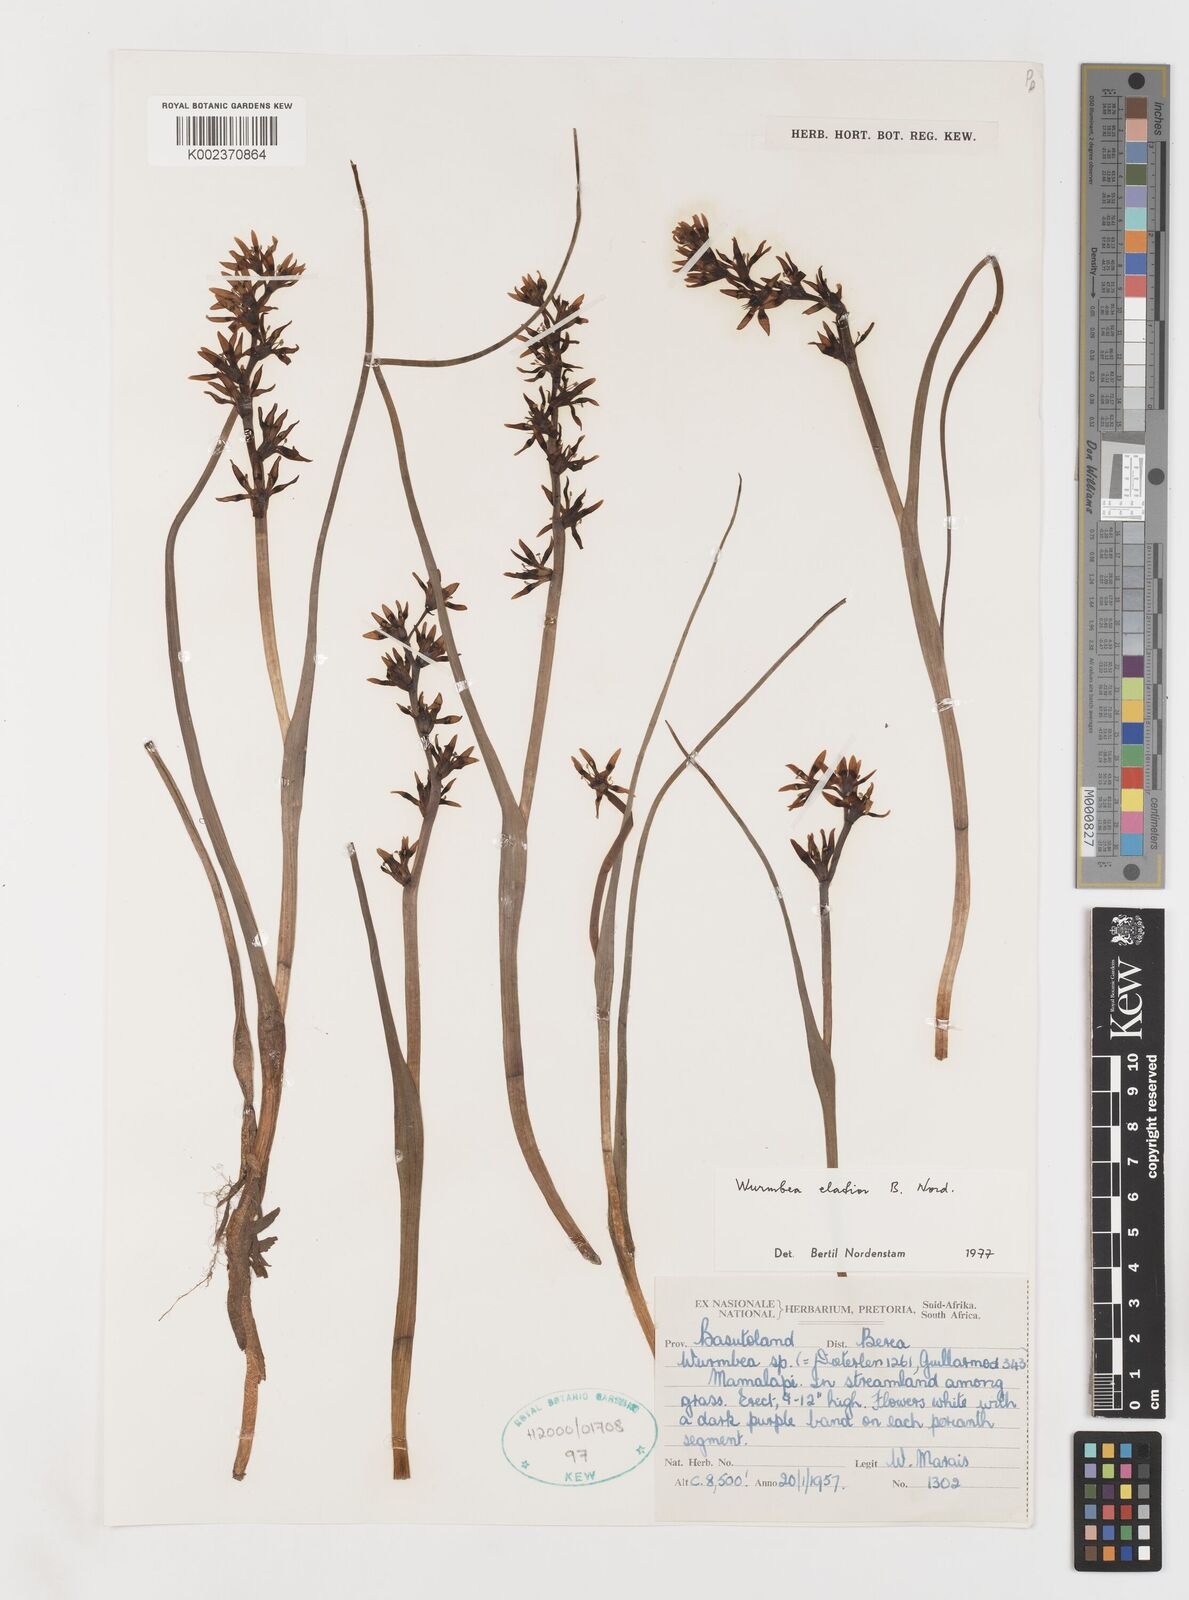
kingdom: Plantae
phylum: Tracheophyta
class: Liliopsida
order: Liliales
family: Colchicaceae
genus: Wurmbea
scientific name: Wurmbea elatior
